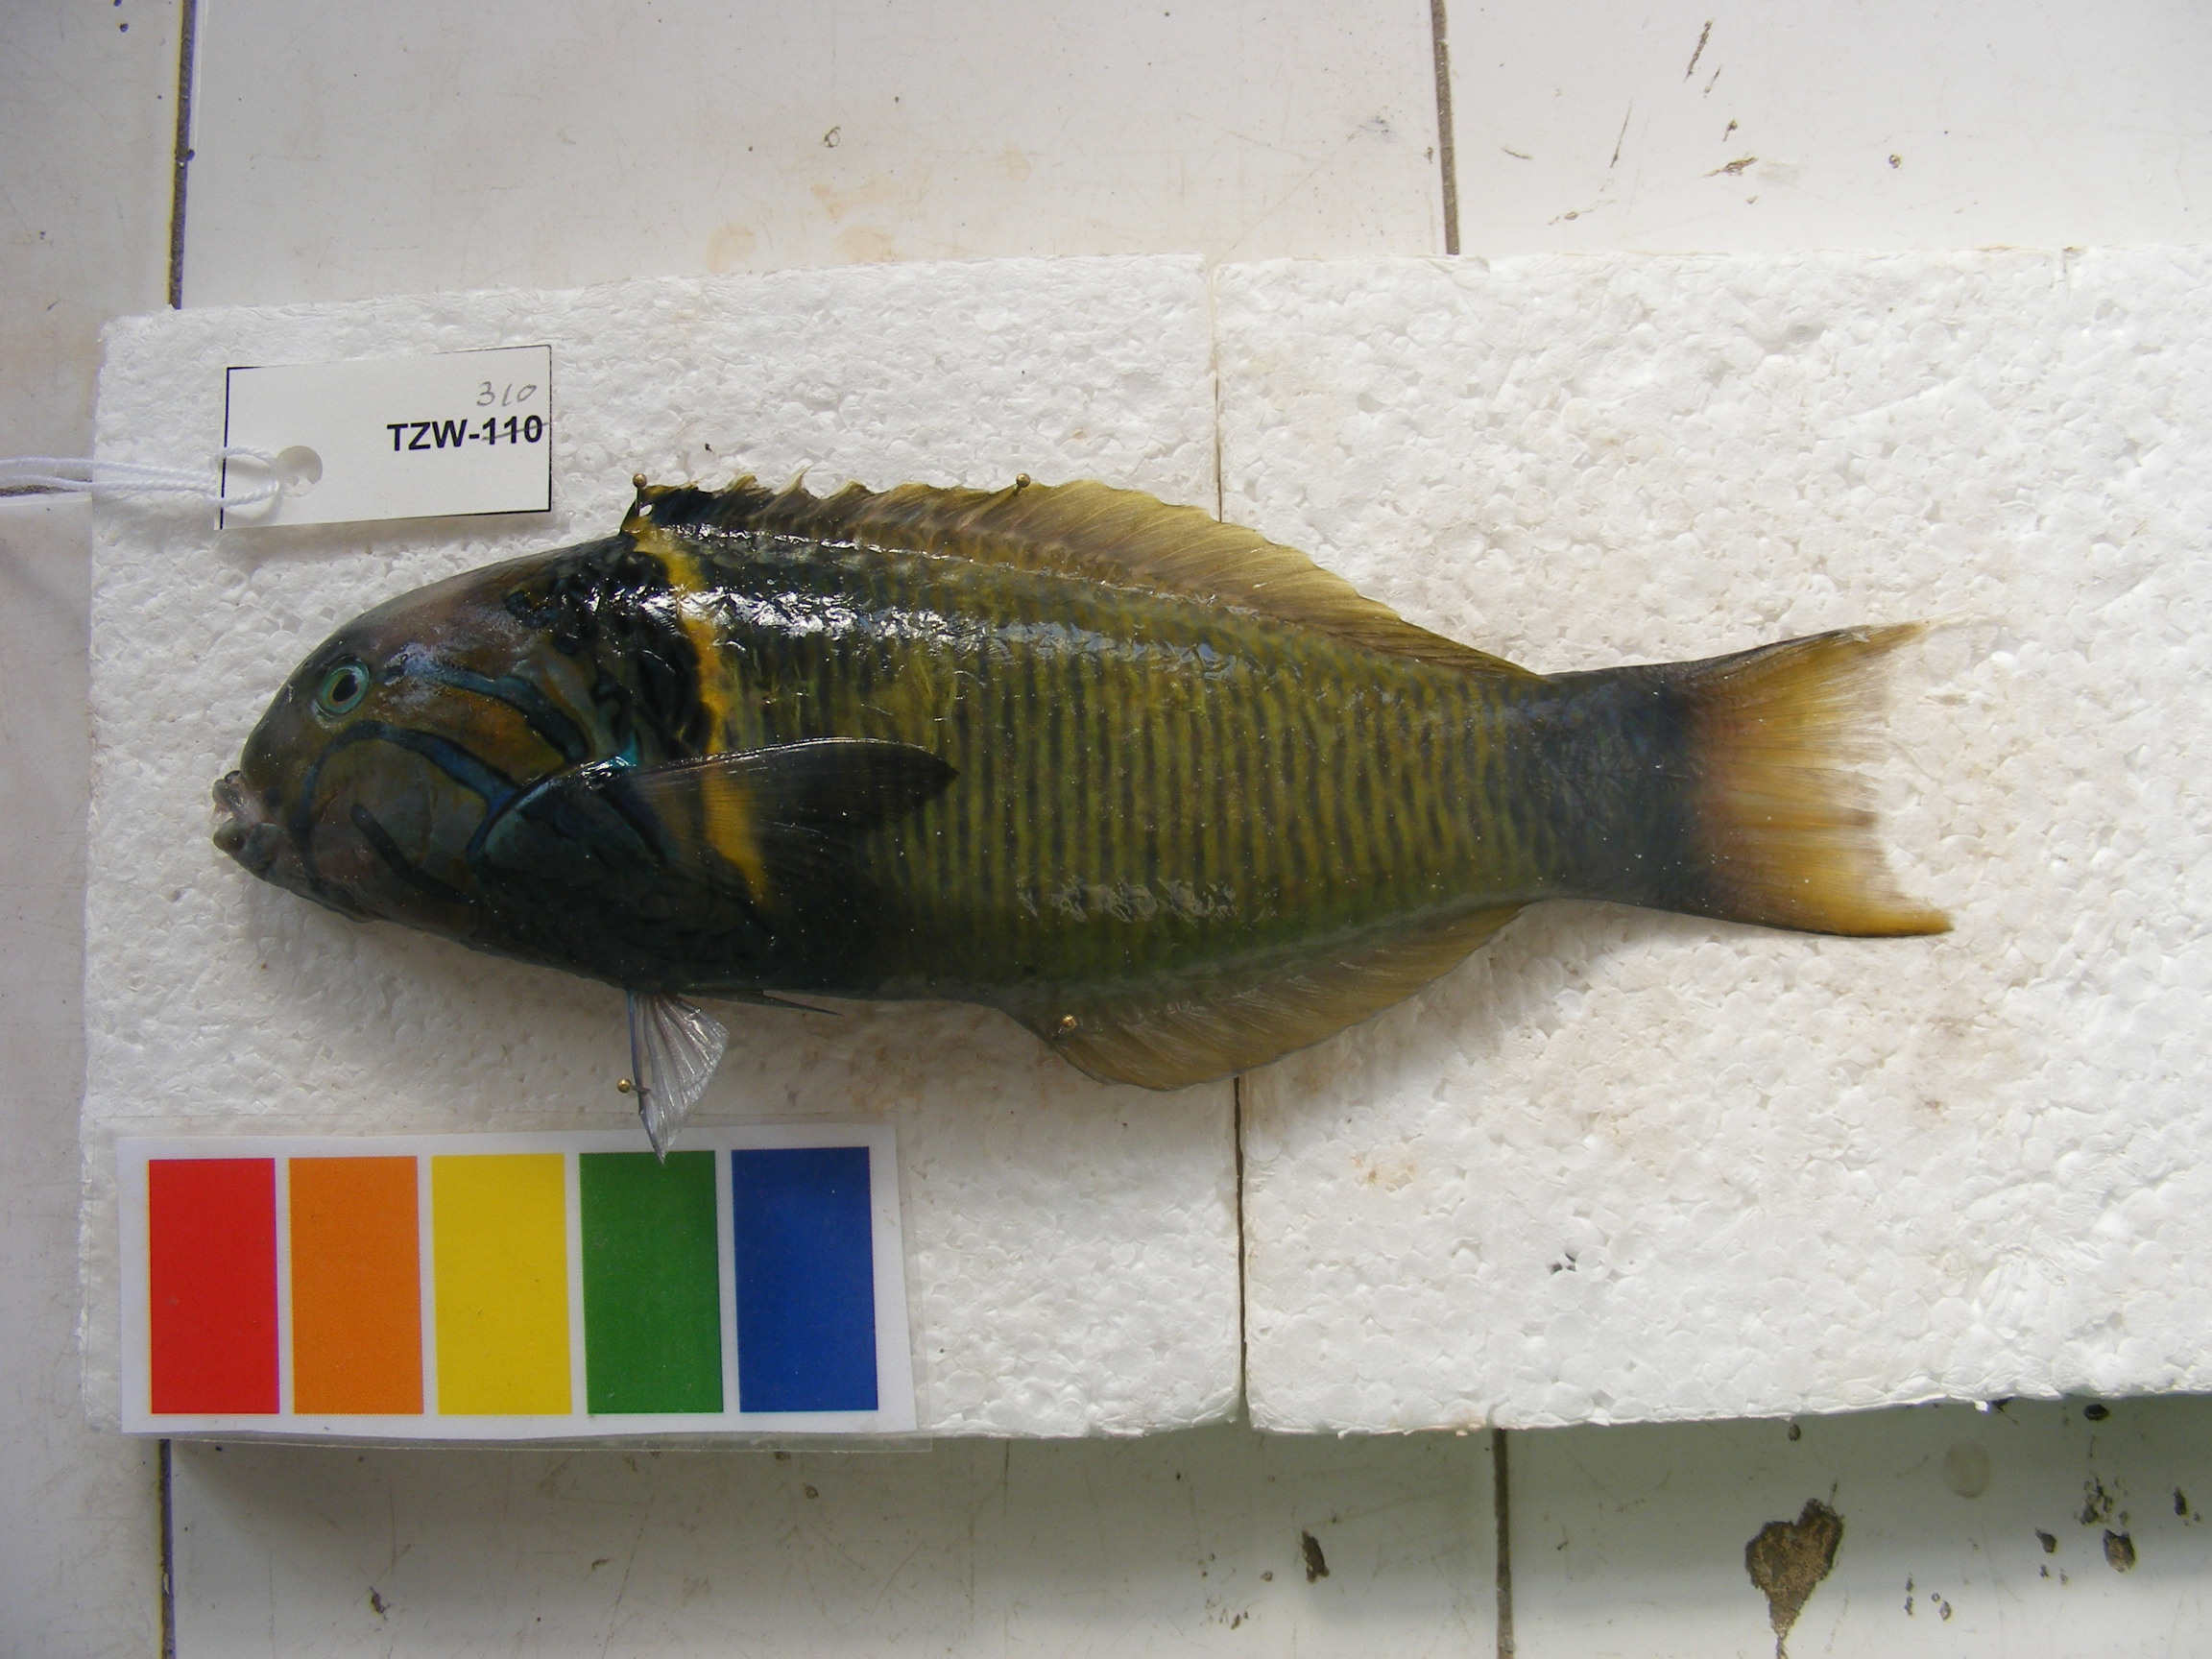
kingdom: Animalia
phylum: Chordata
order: Perciformes
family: Labridae
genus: Thalassoma
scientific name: Thalassoma hebraicum
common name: Goldbar wrasse
